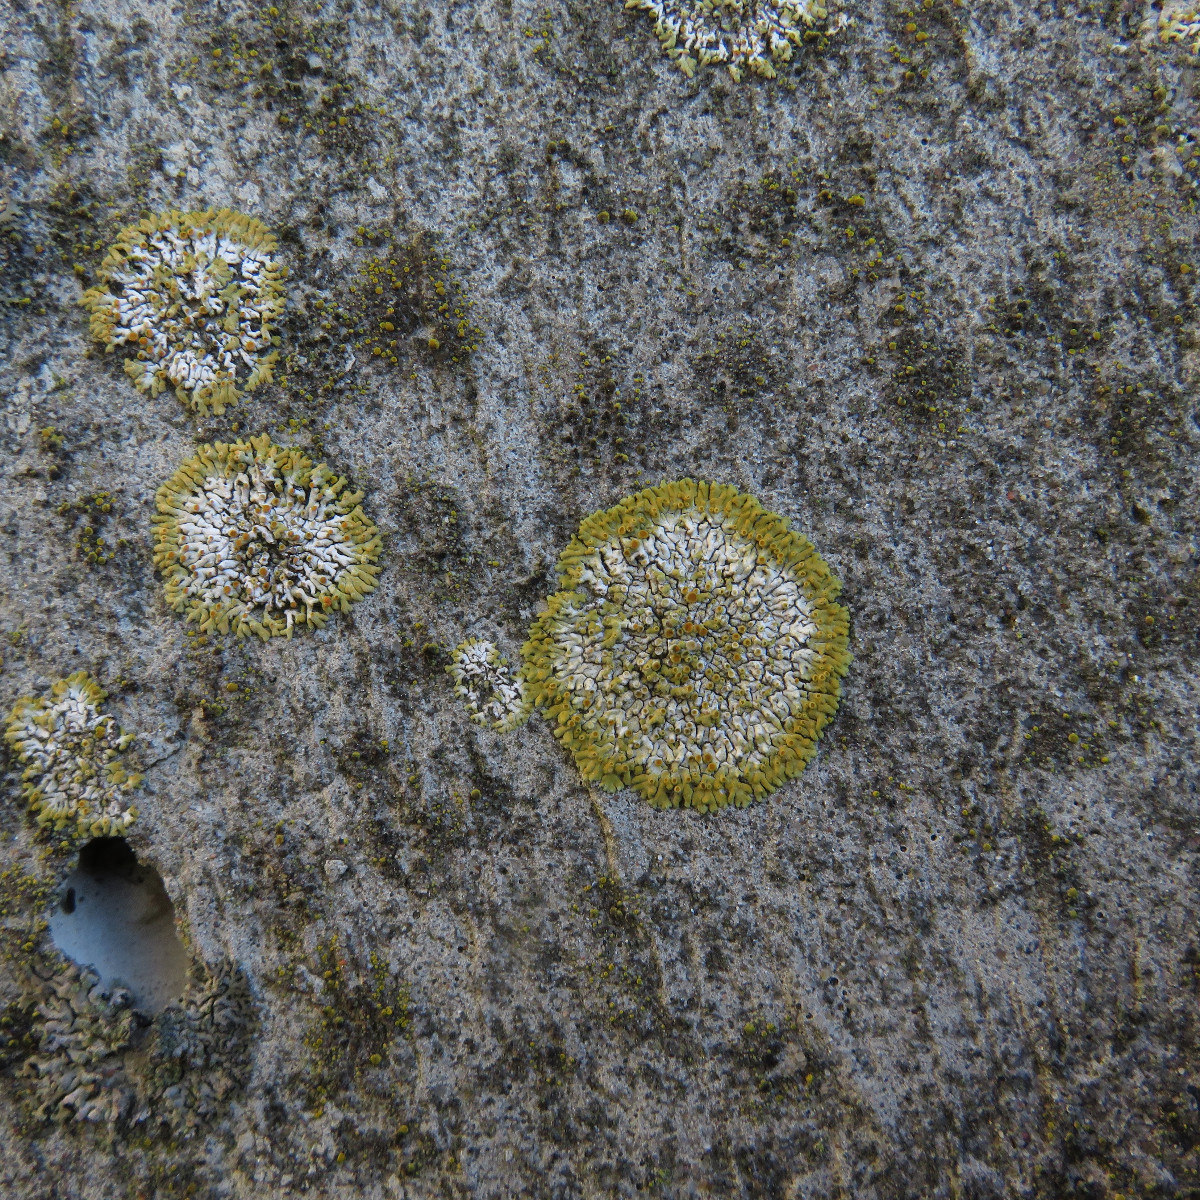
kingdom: Fungi
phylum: Ascomycota
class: Lecanoromycetes
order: Teloschistales
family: Teloschistaceae
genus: Calogaya
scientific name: Calogaya saxicola
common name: mur-orangelav
